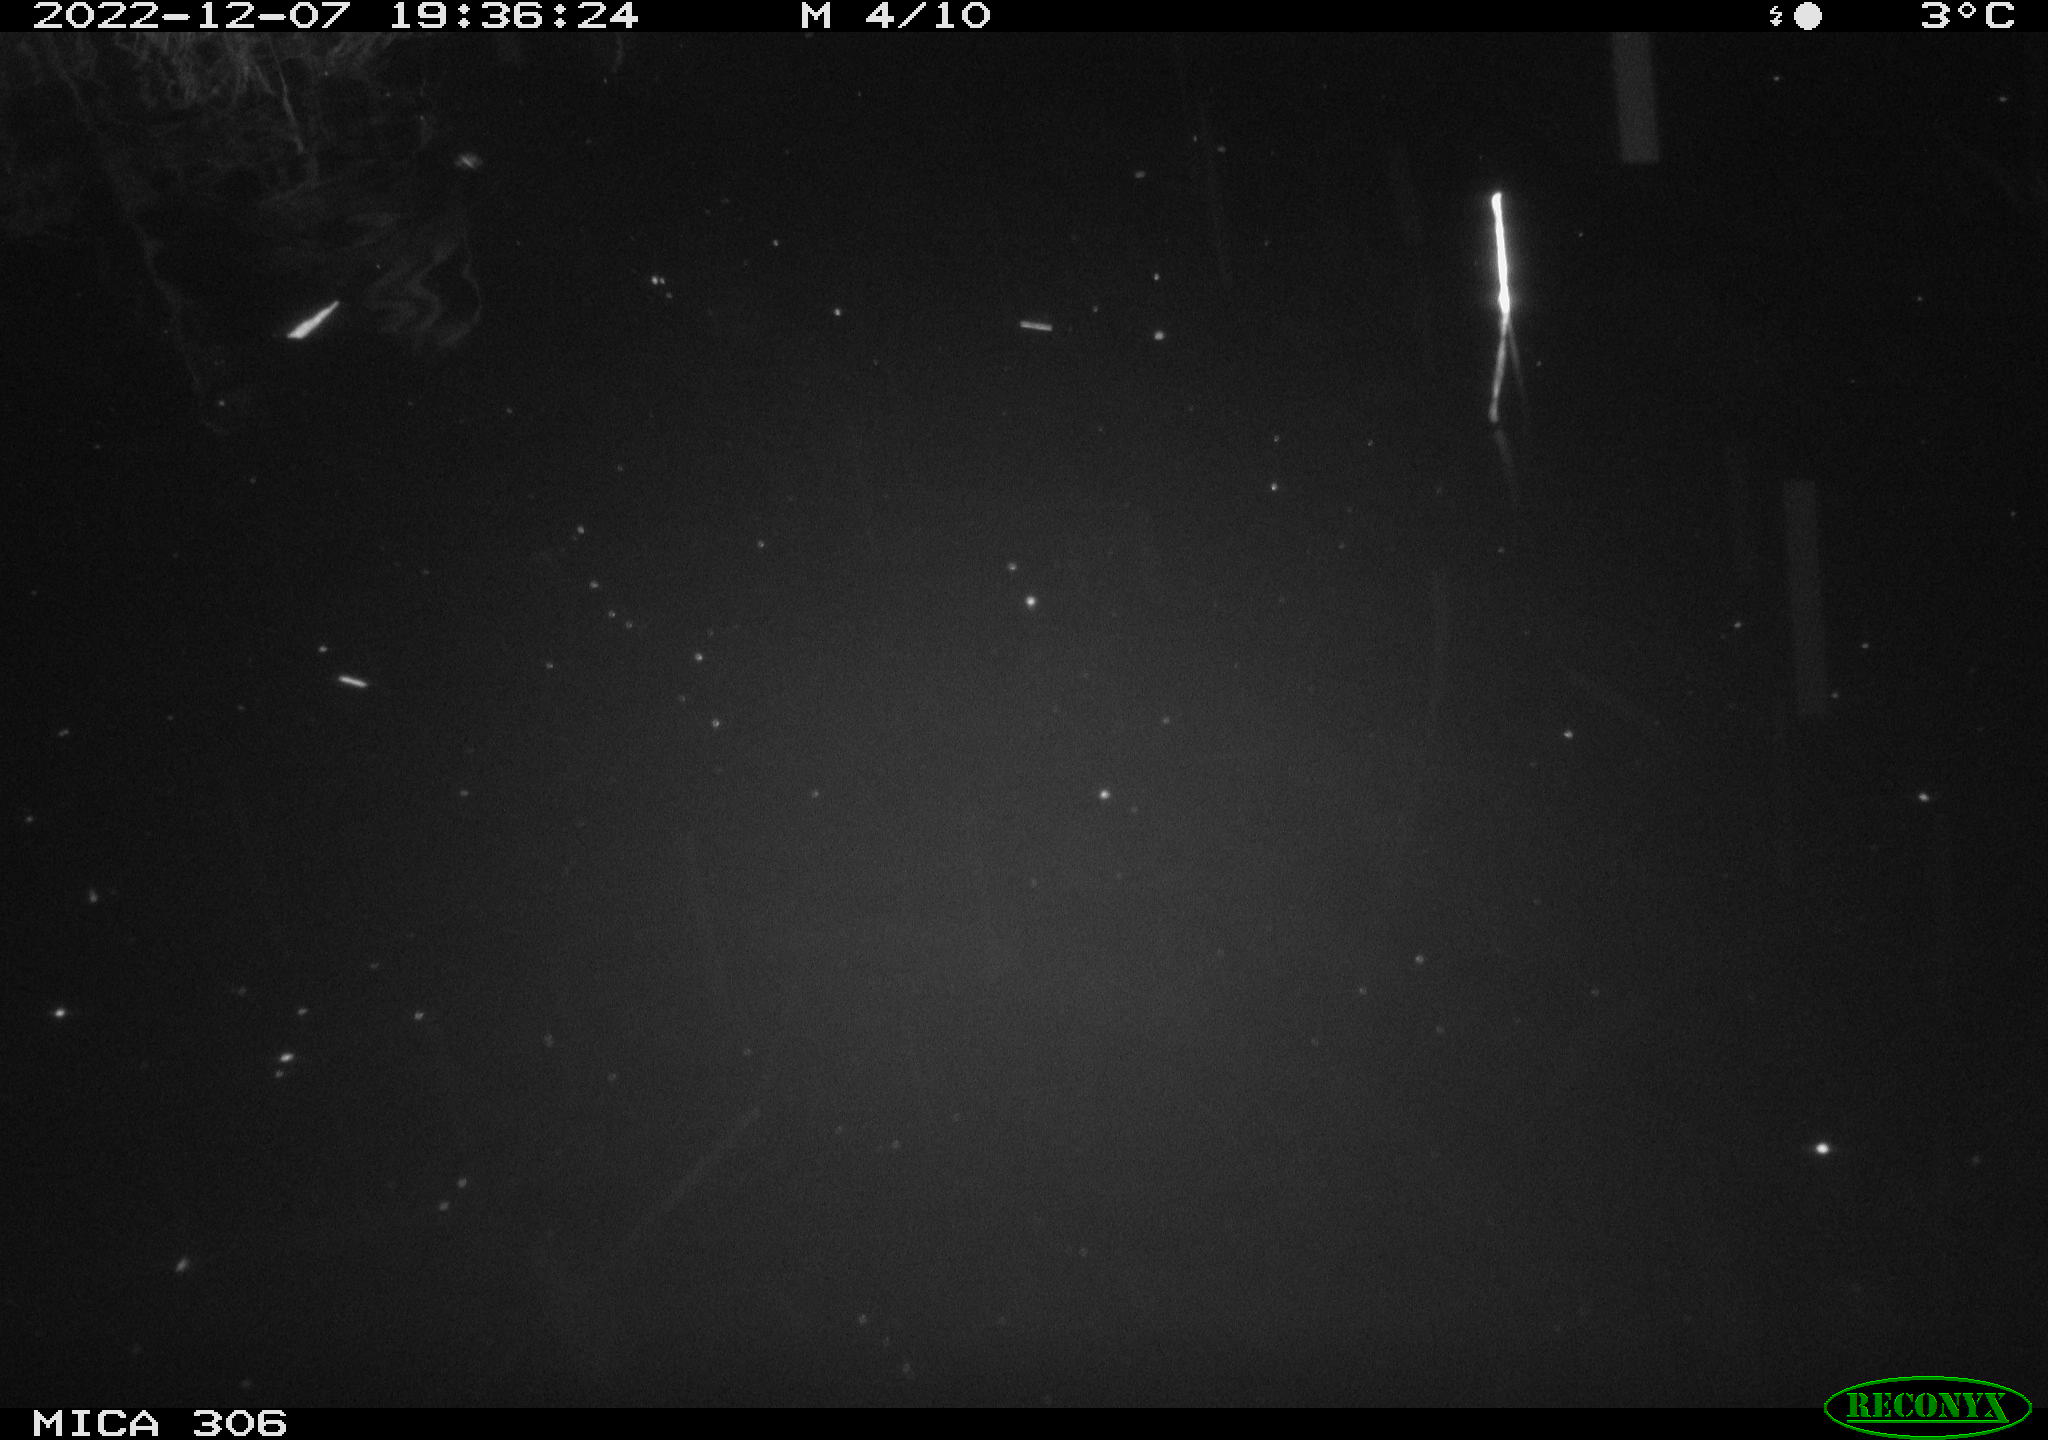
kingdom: Animalia
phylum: Chordata
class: Mammalia
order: Rodentia
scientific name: Rodentia
